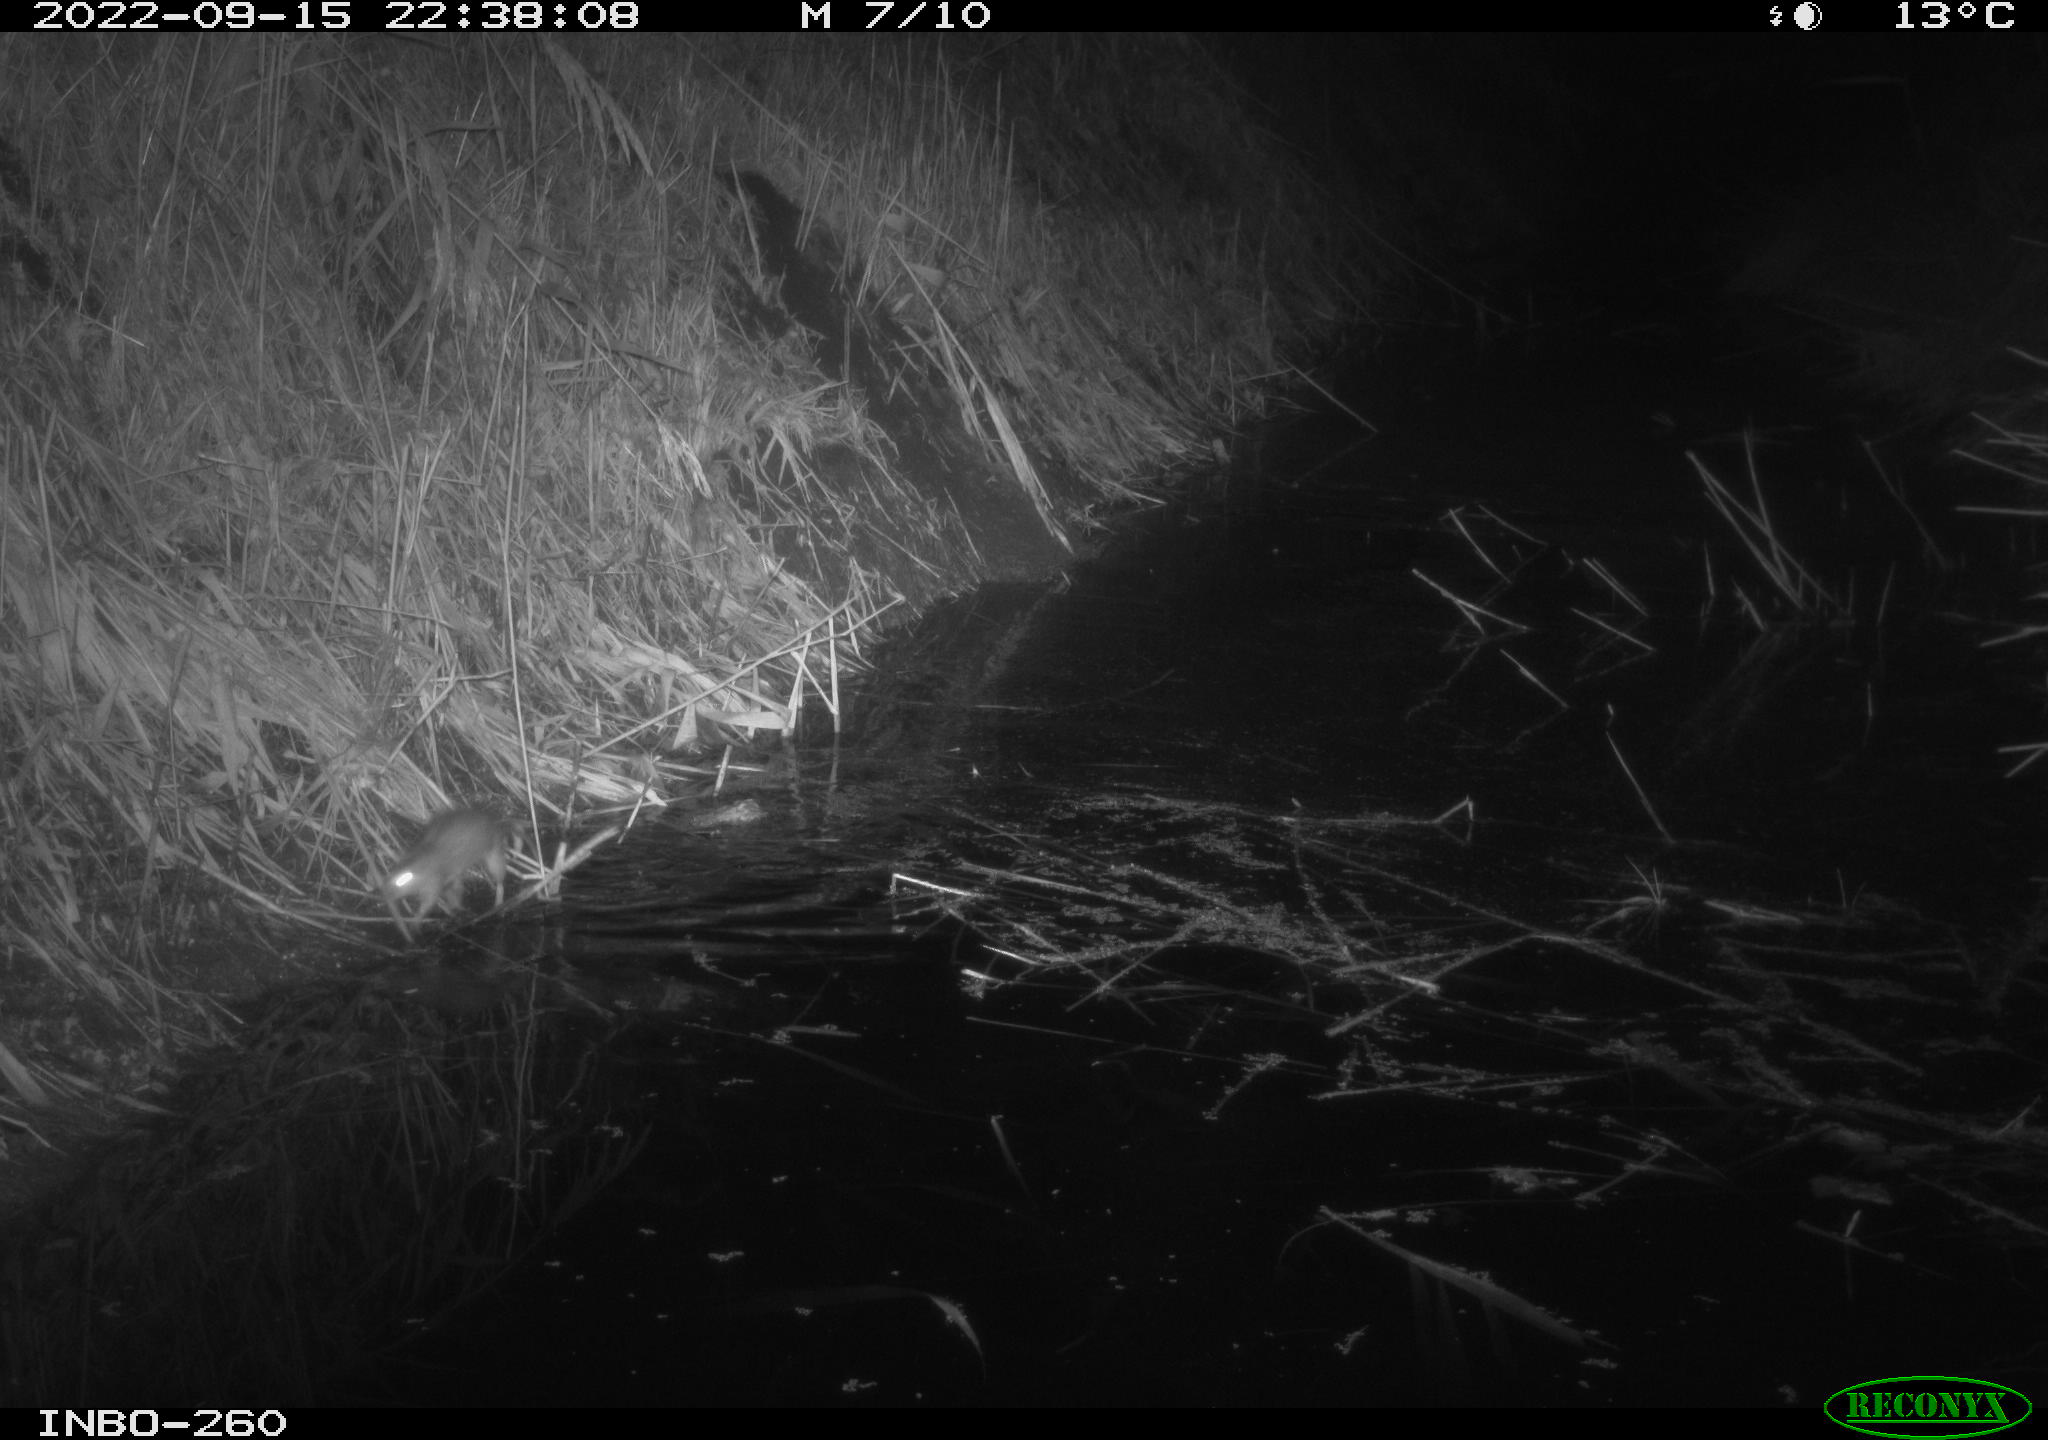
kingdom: Animalia
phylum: Chordata
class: Mammalia
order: Rodentia
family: Muridae
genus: Rattus
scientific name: Rattus norvegicus
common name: Brown rat
